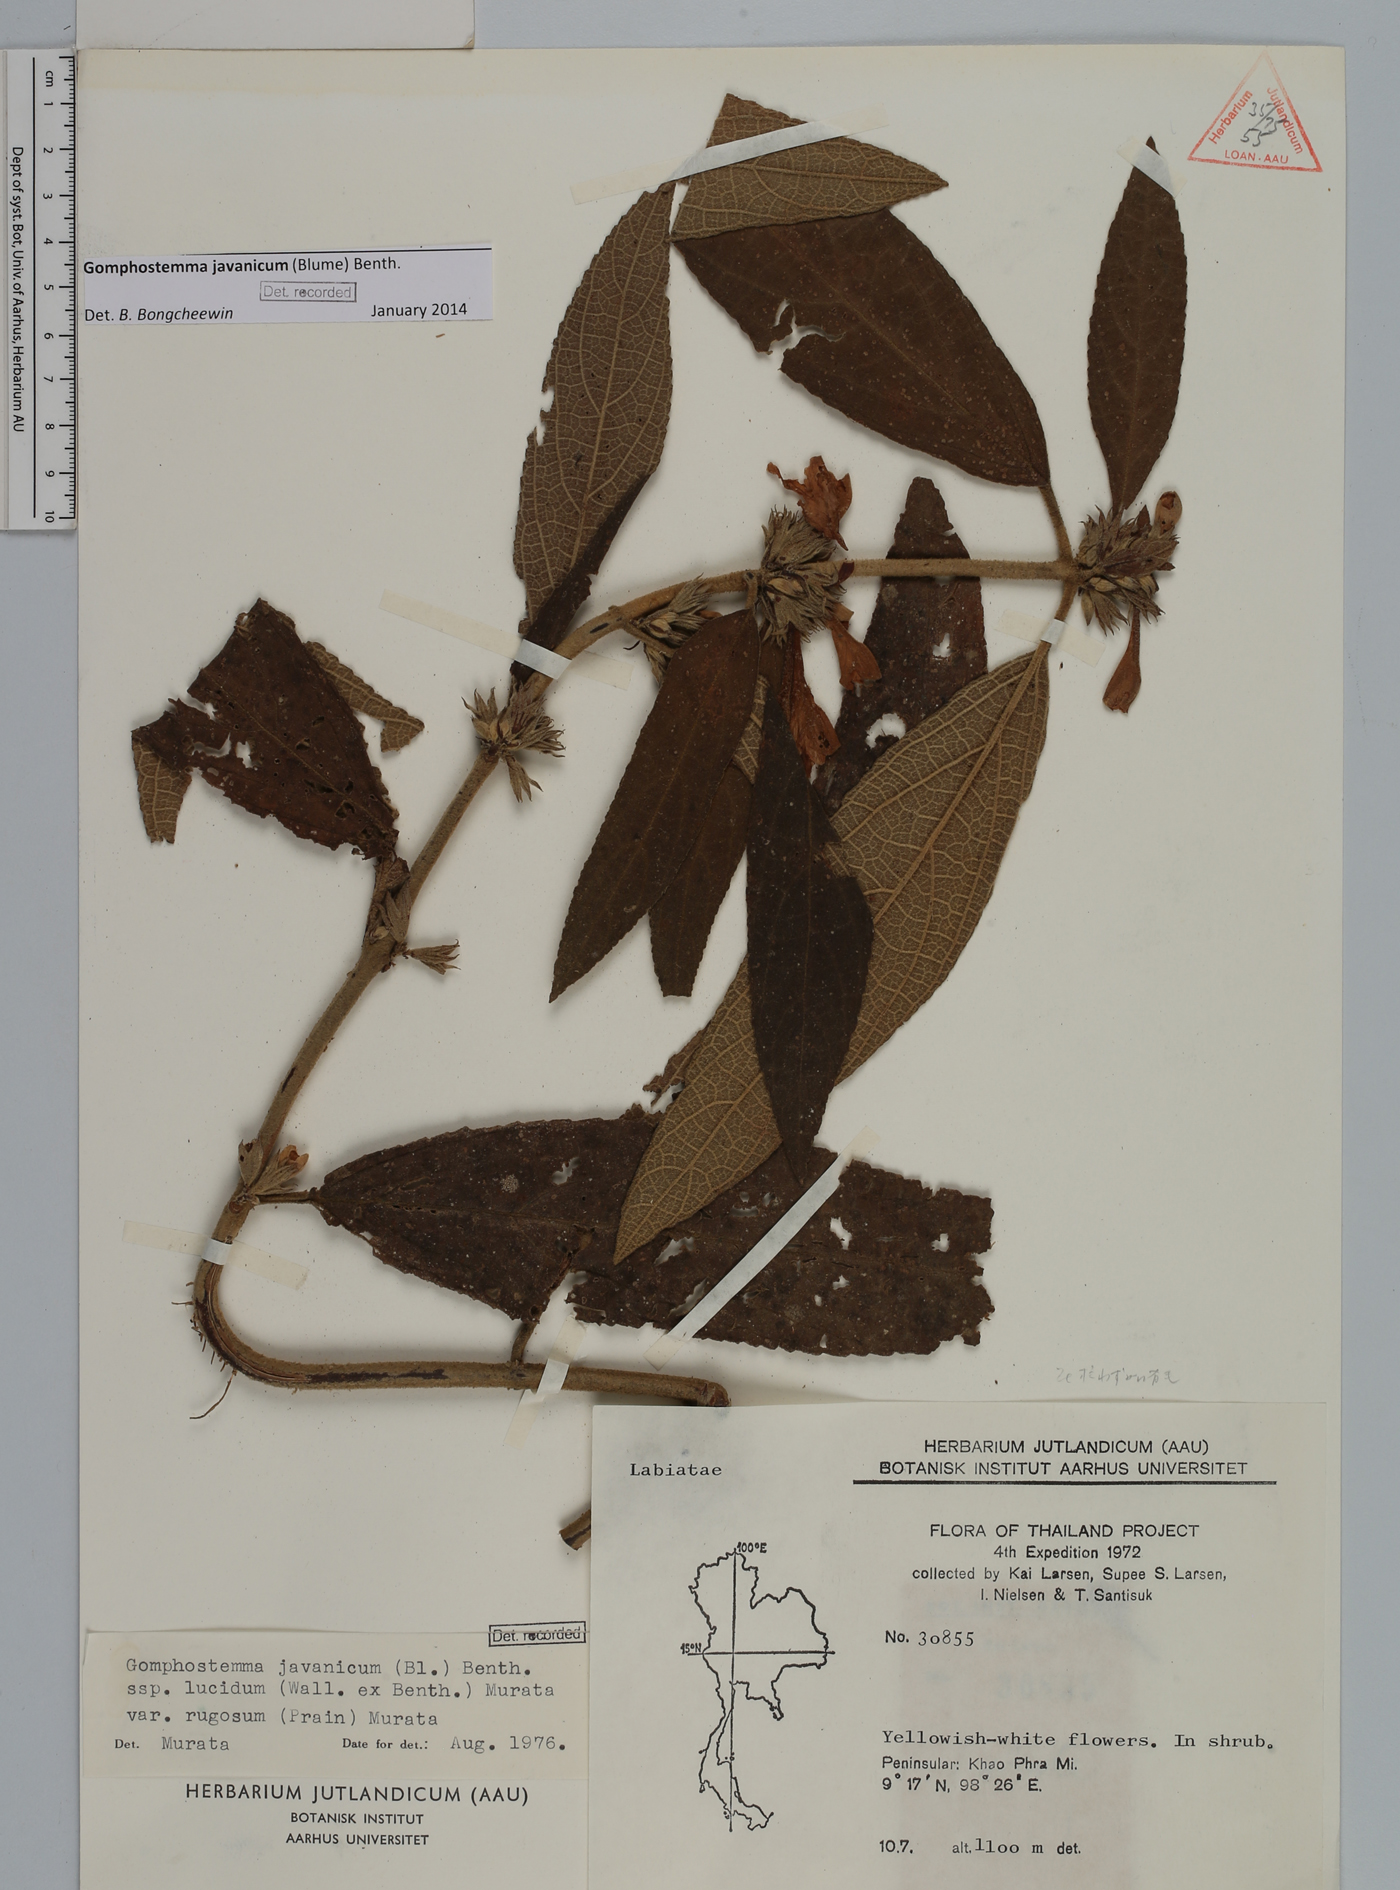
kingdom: Plantae
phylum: Tracheophyta
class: Magnoliopsida
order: Lamiales
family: Lamiaceae
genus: Gomphostemma
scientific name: Gomphostemma javanicum
